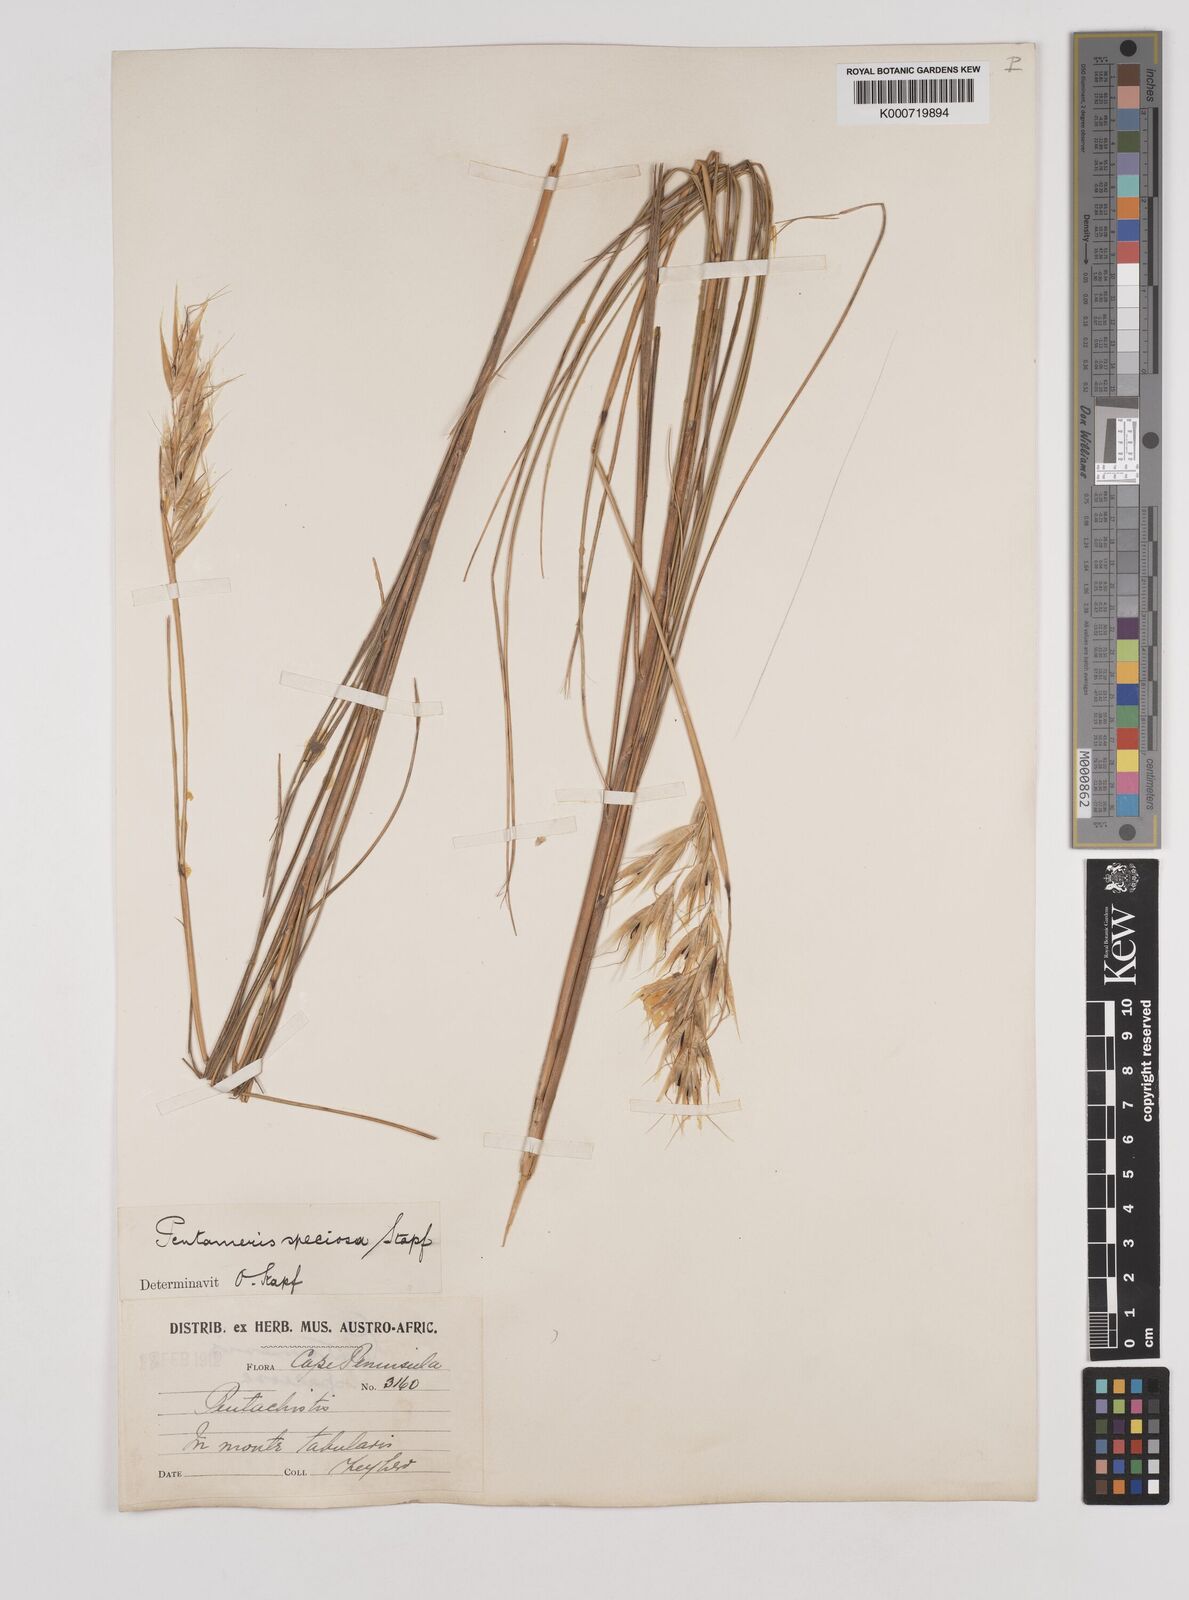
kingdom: Plantae
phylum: Tracheophyta
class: Liliopsida
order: Poales
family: Poaceae
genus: Pentameris
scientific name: Pentameris macrocalycina
